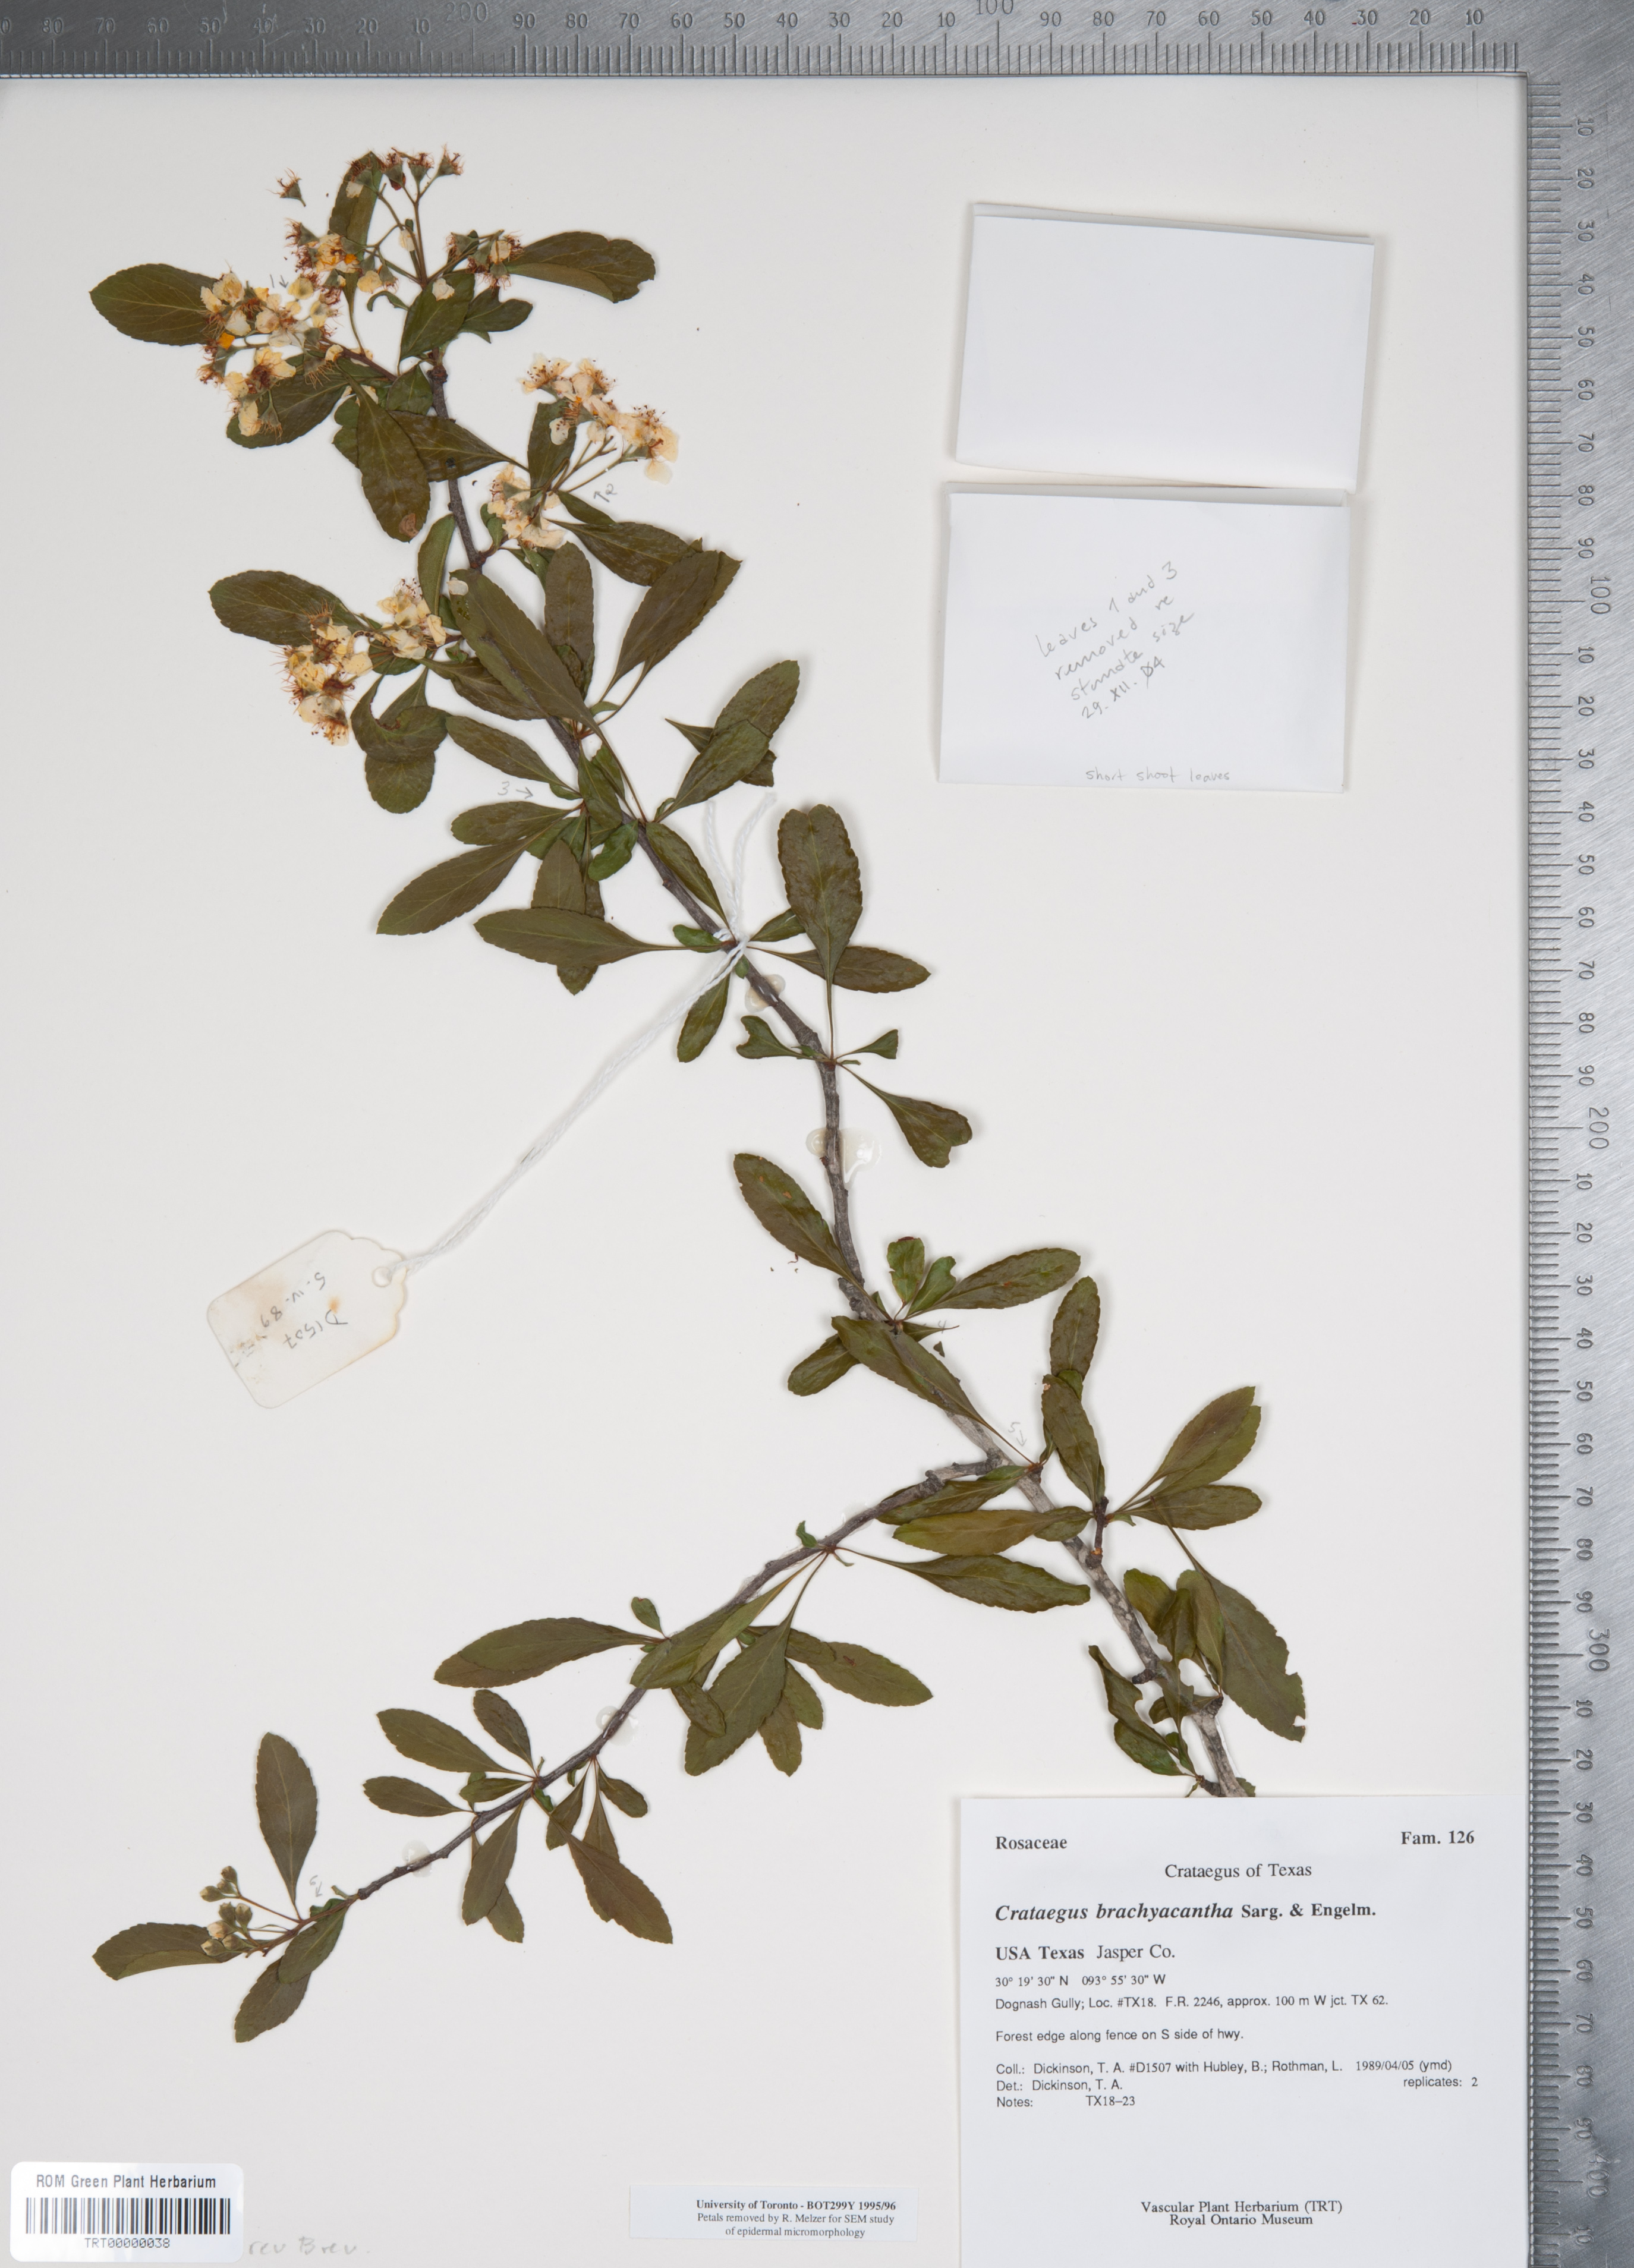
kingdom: Plantae
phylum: Tracheophyta
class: Magnoliopsida
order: Rosales
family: Rosaceae
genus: Crataegus
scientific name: Crataegus brachyacantha
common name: Blueberry-hawthorn
